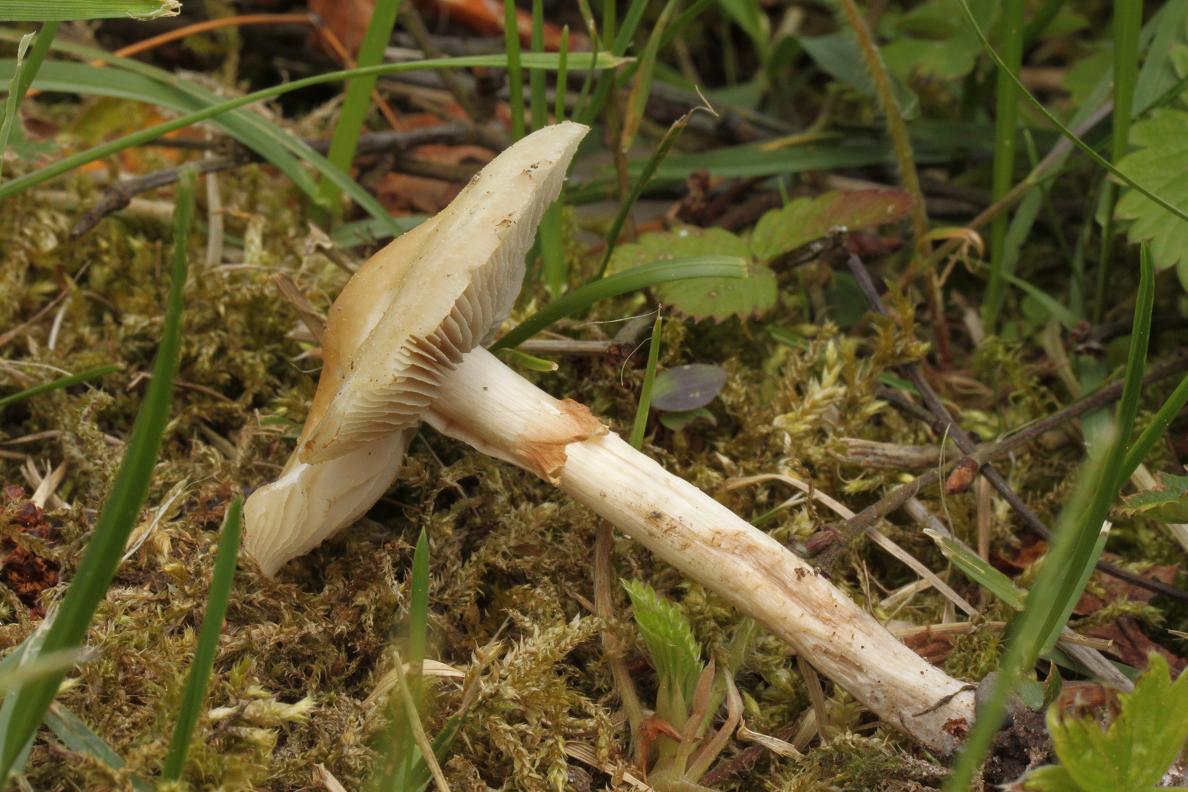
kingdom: Fungi
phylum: Basidiomycota
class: Agaricomycetes
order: Agaricales
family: Strophariaceae
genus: Agrocybe
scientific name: Agrocybe praecox
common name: tidlig agerhat
